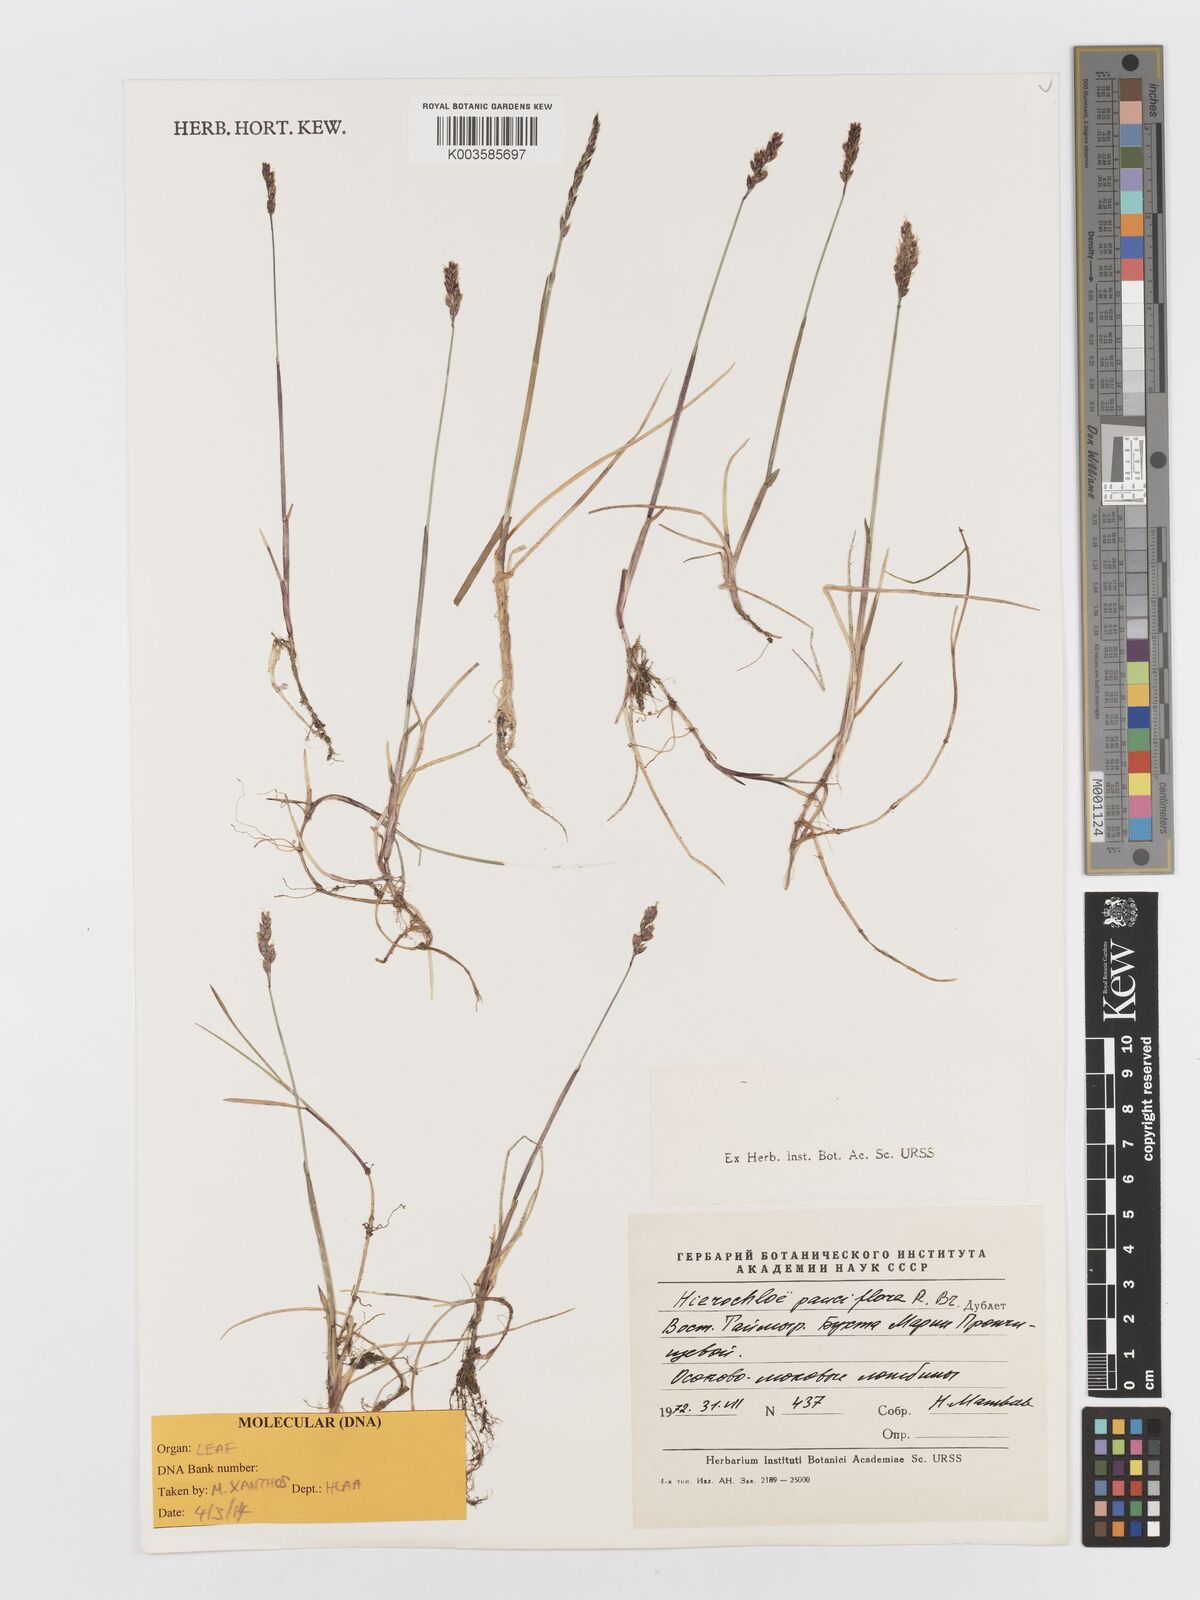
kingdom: Plantae
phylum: Tracheophyta
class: Liliopsida
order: Poales
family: Poaceae
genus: Anthoxanthum
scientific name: Anthoxanthum arcticum
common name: Arctic sweetgrass
